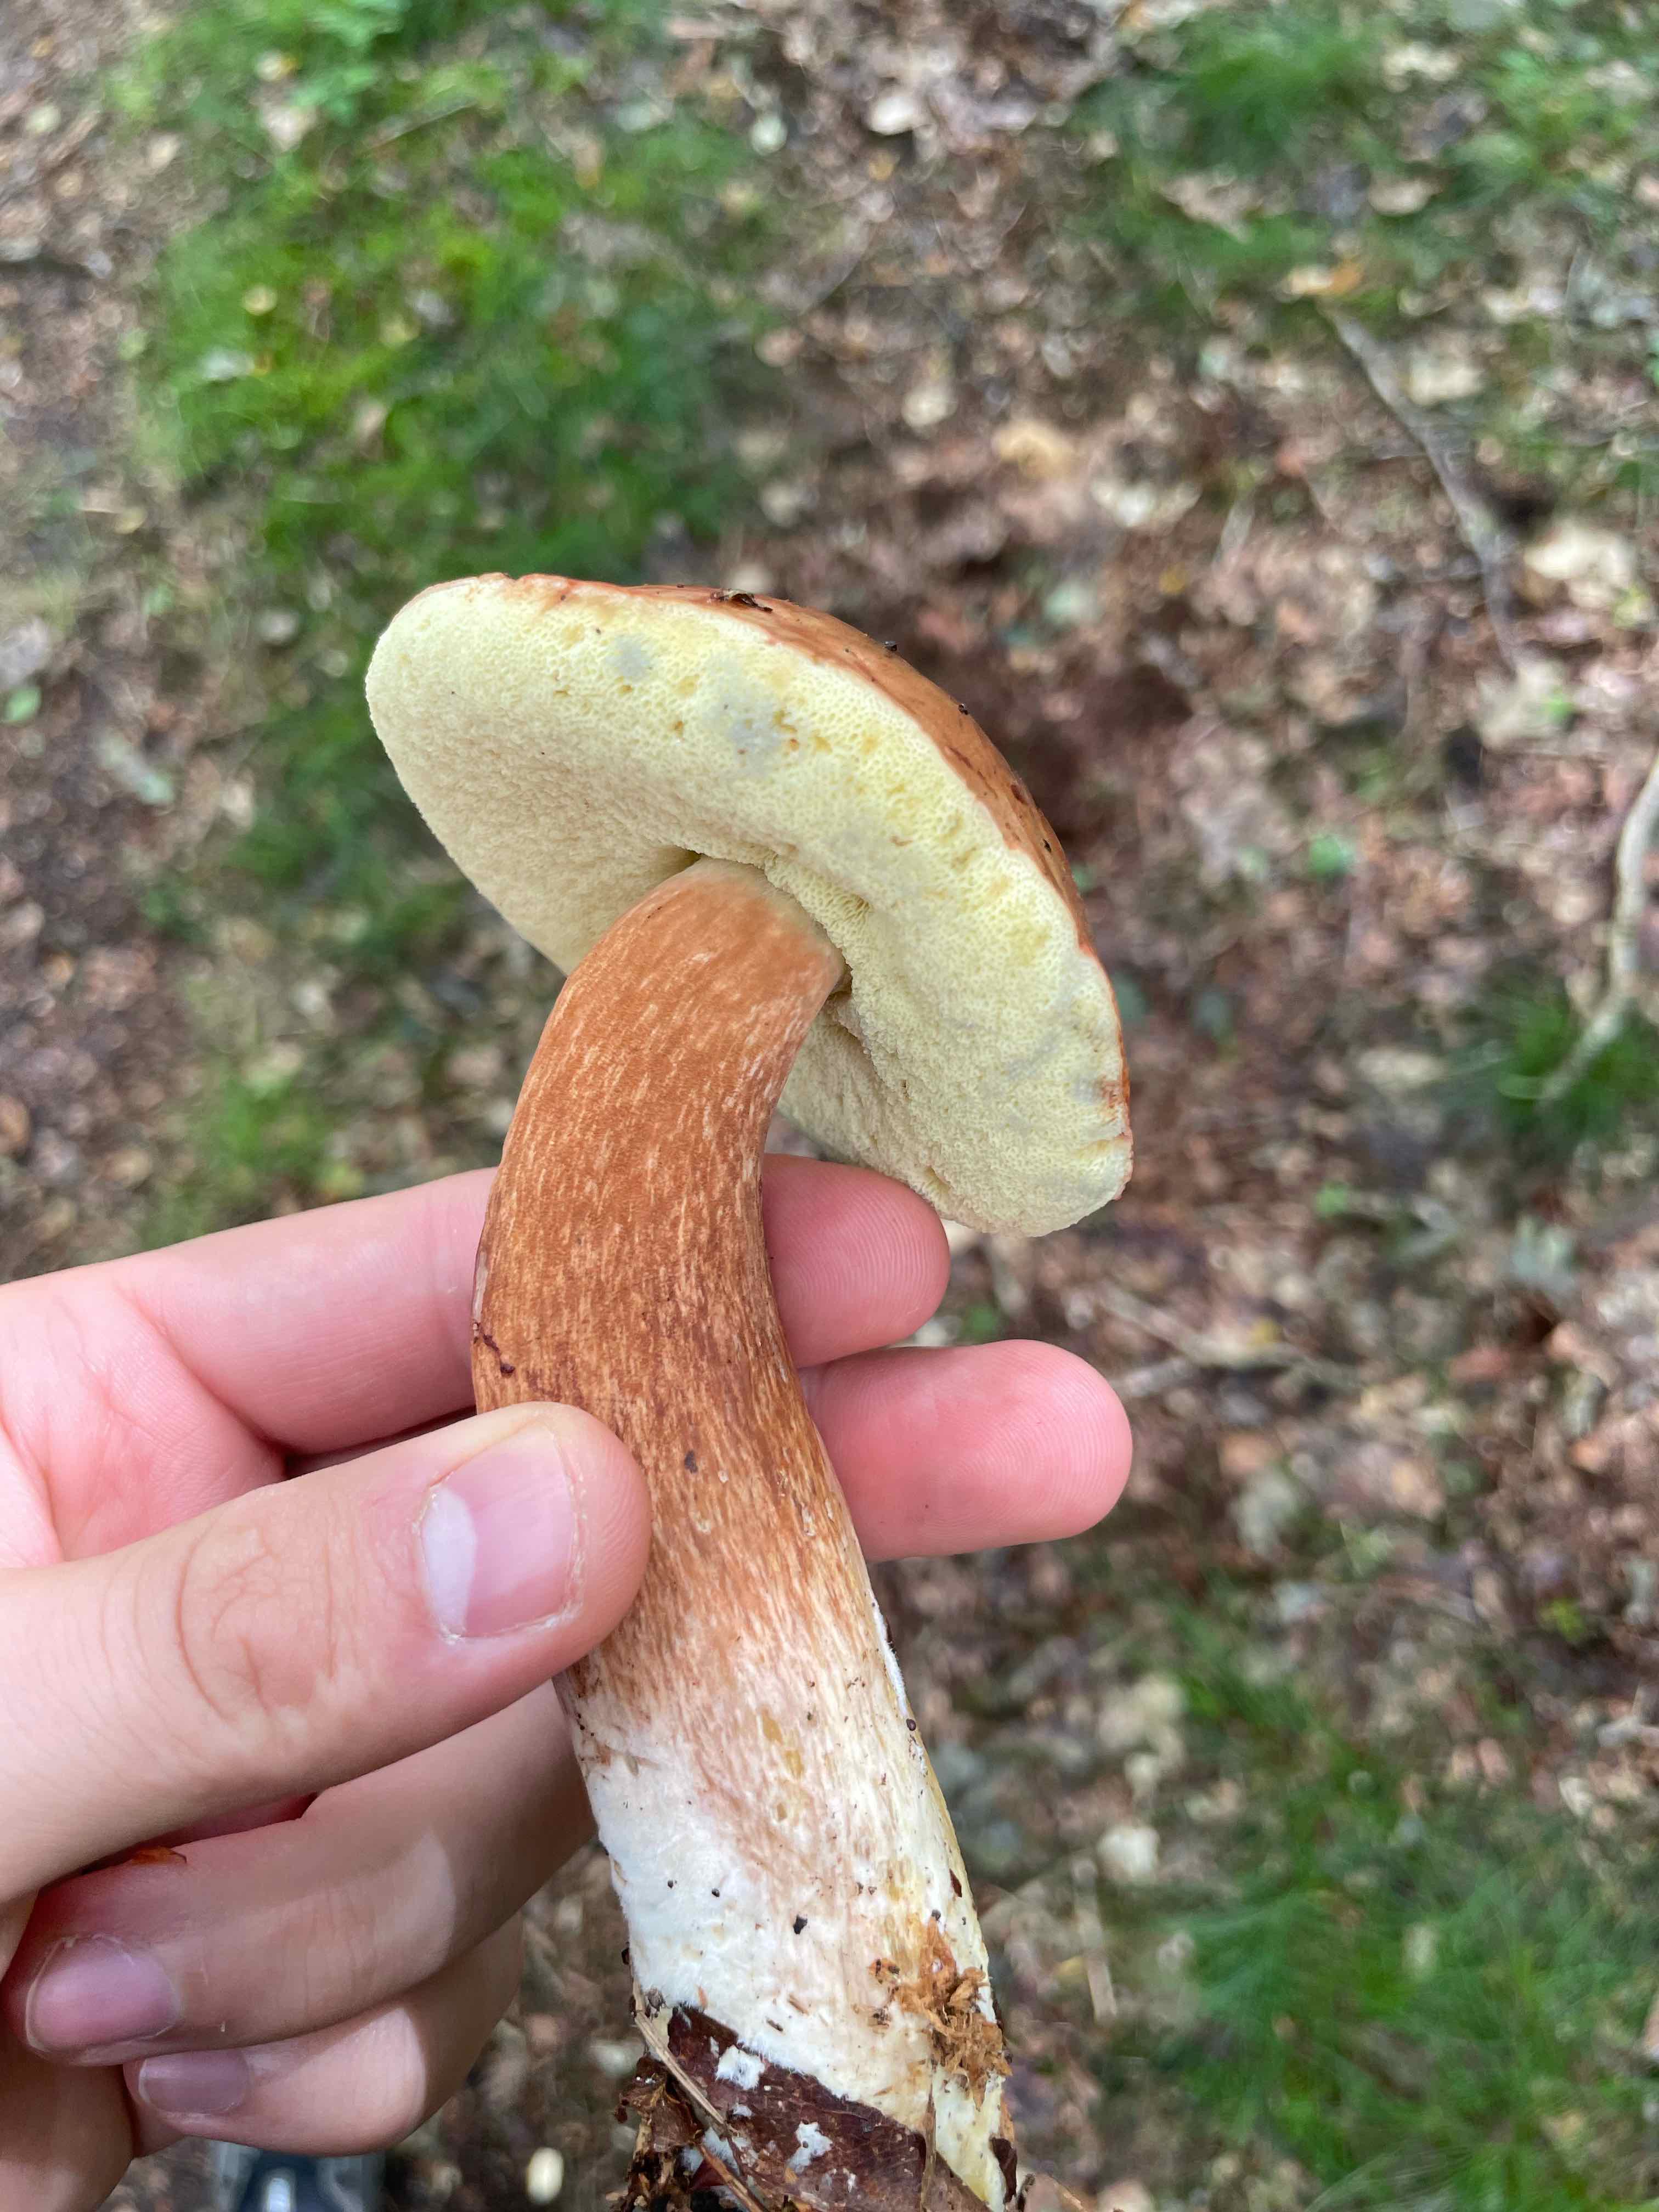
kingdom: Fungi
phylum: Basidiomycota
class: Agaricomycetes
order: Boletales
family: Boletaceae
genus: Imleria
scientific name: Imleria badia
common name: brunstokket rørhat
